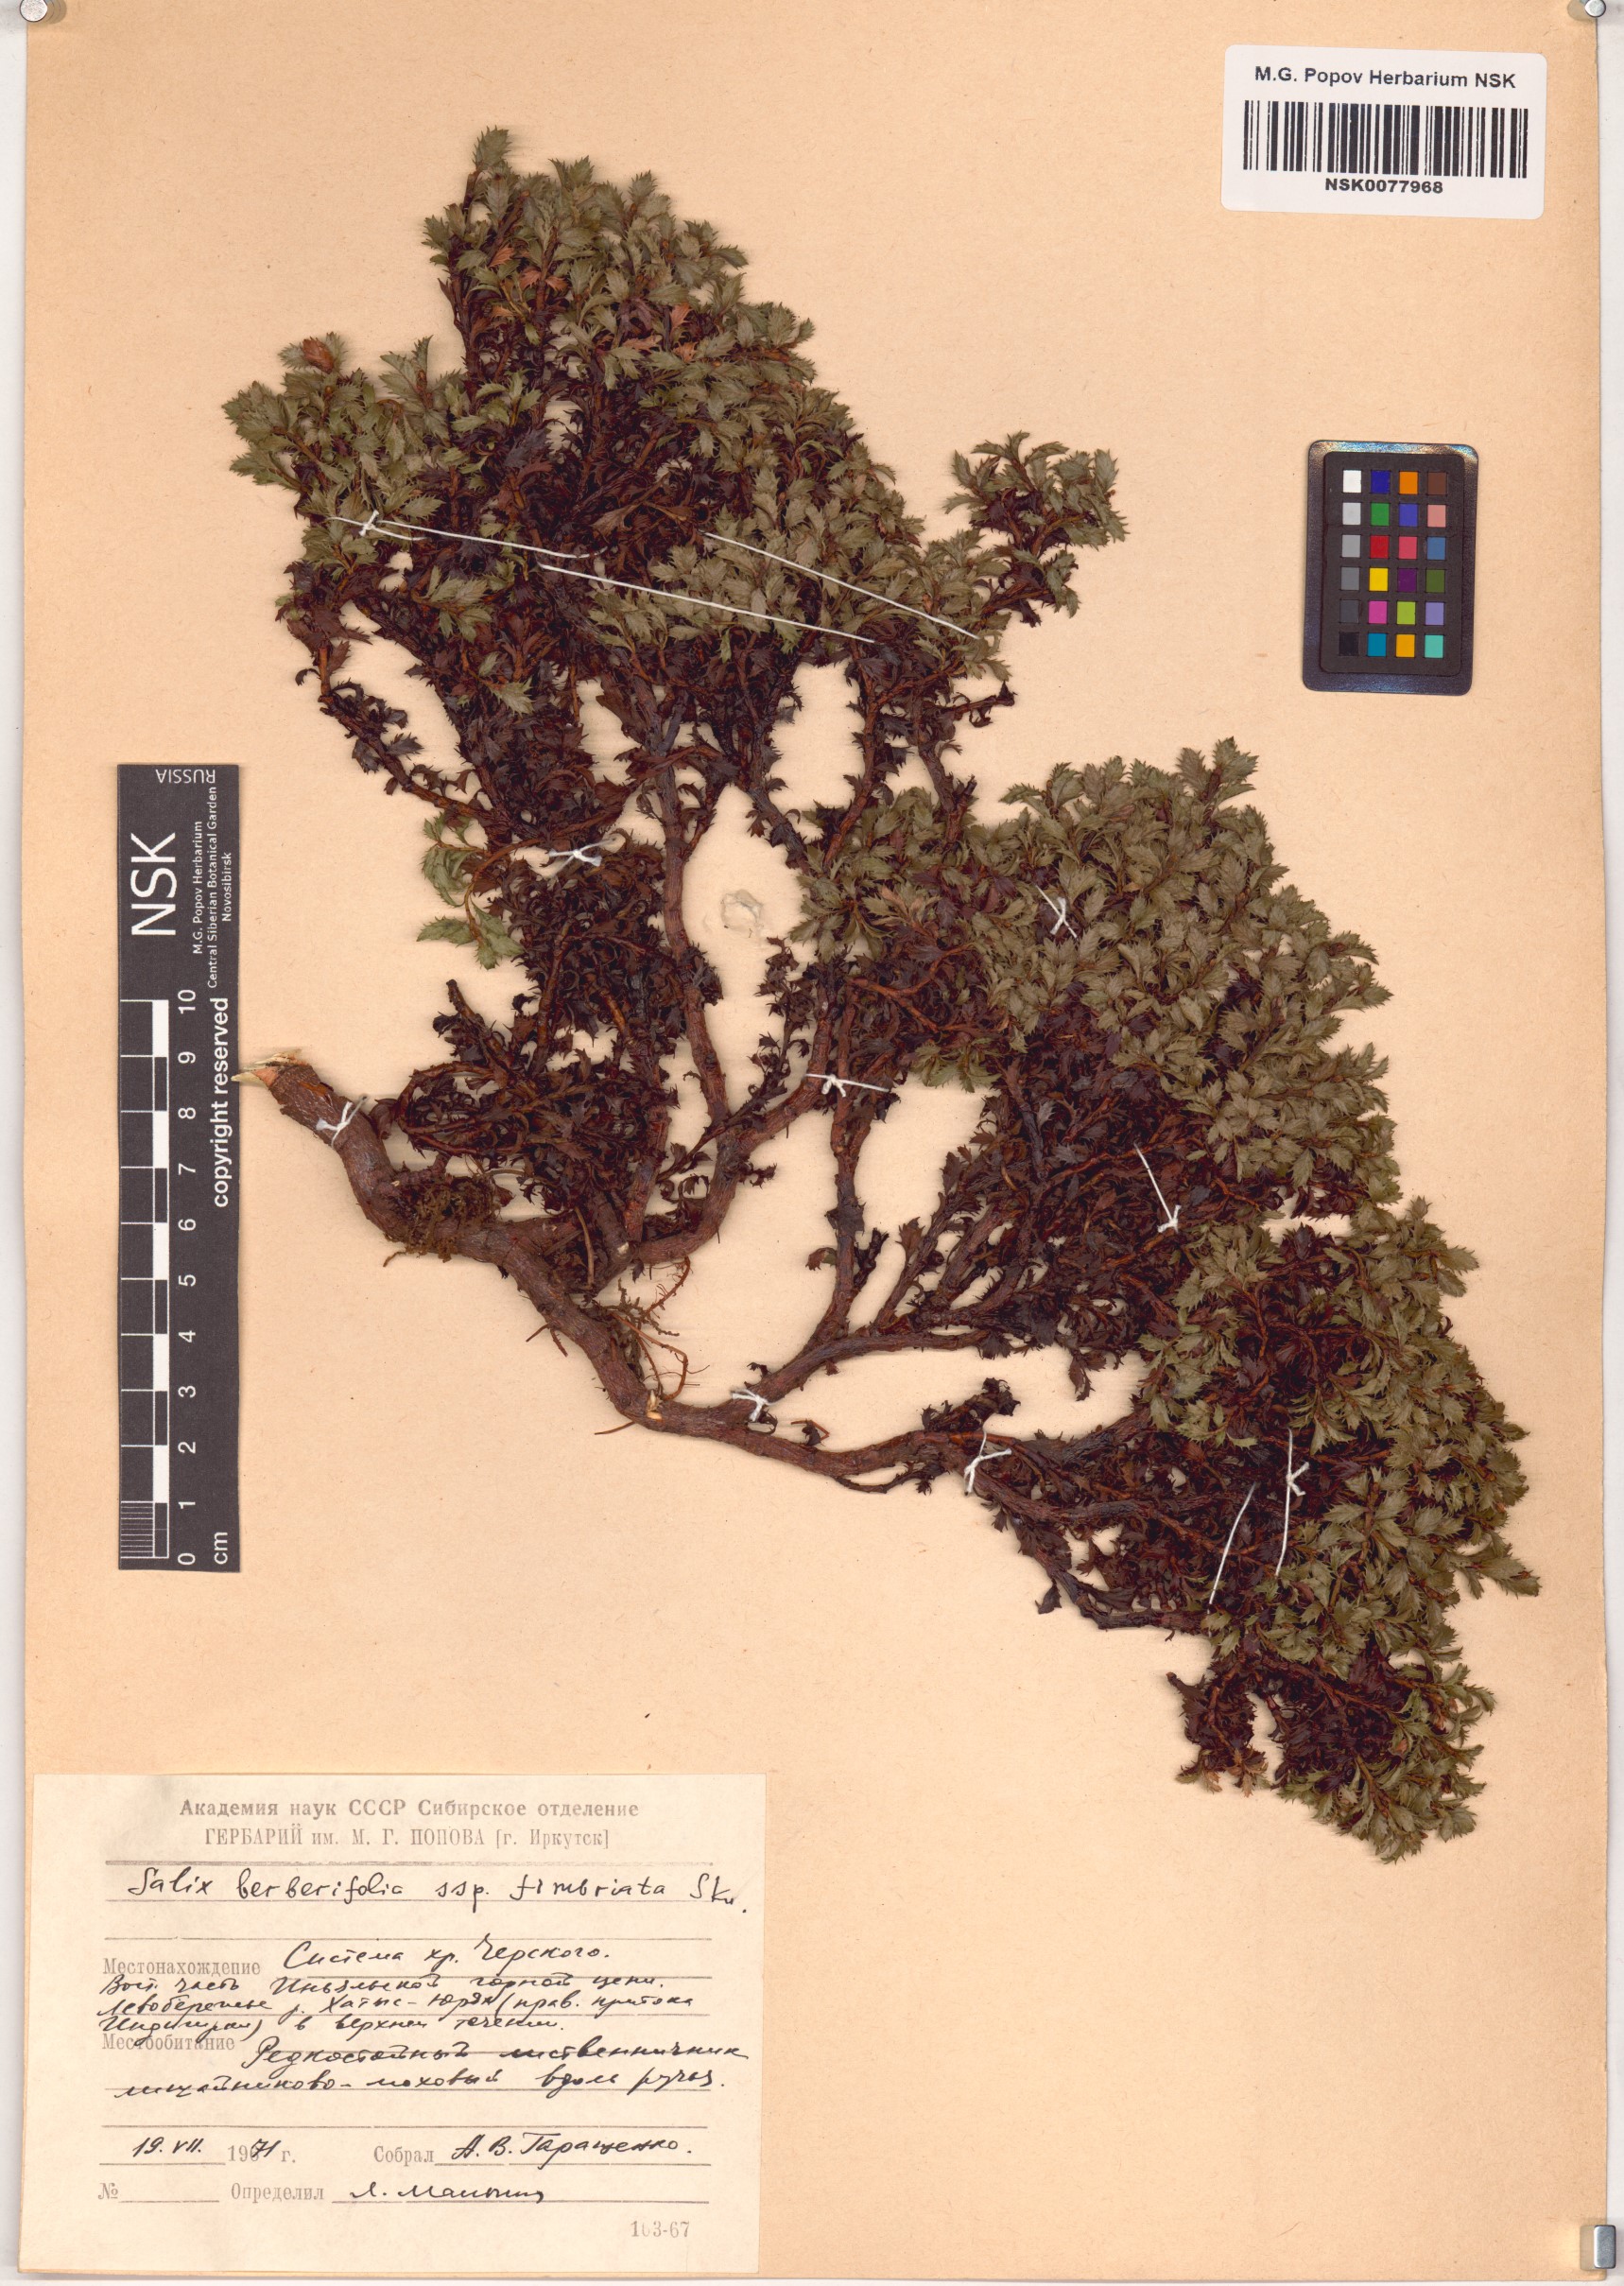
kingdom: Plantae
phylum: Tracheophyta
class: Magnoliopsida
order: Malpighiales
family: Salicaceae
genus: Salix
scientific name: Salix berberifolia
